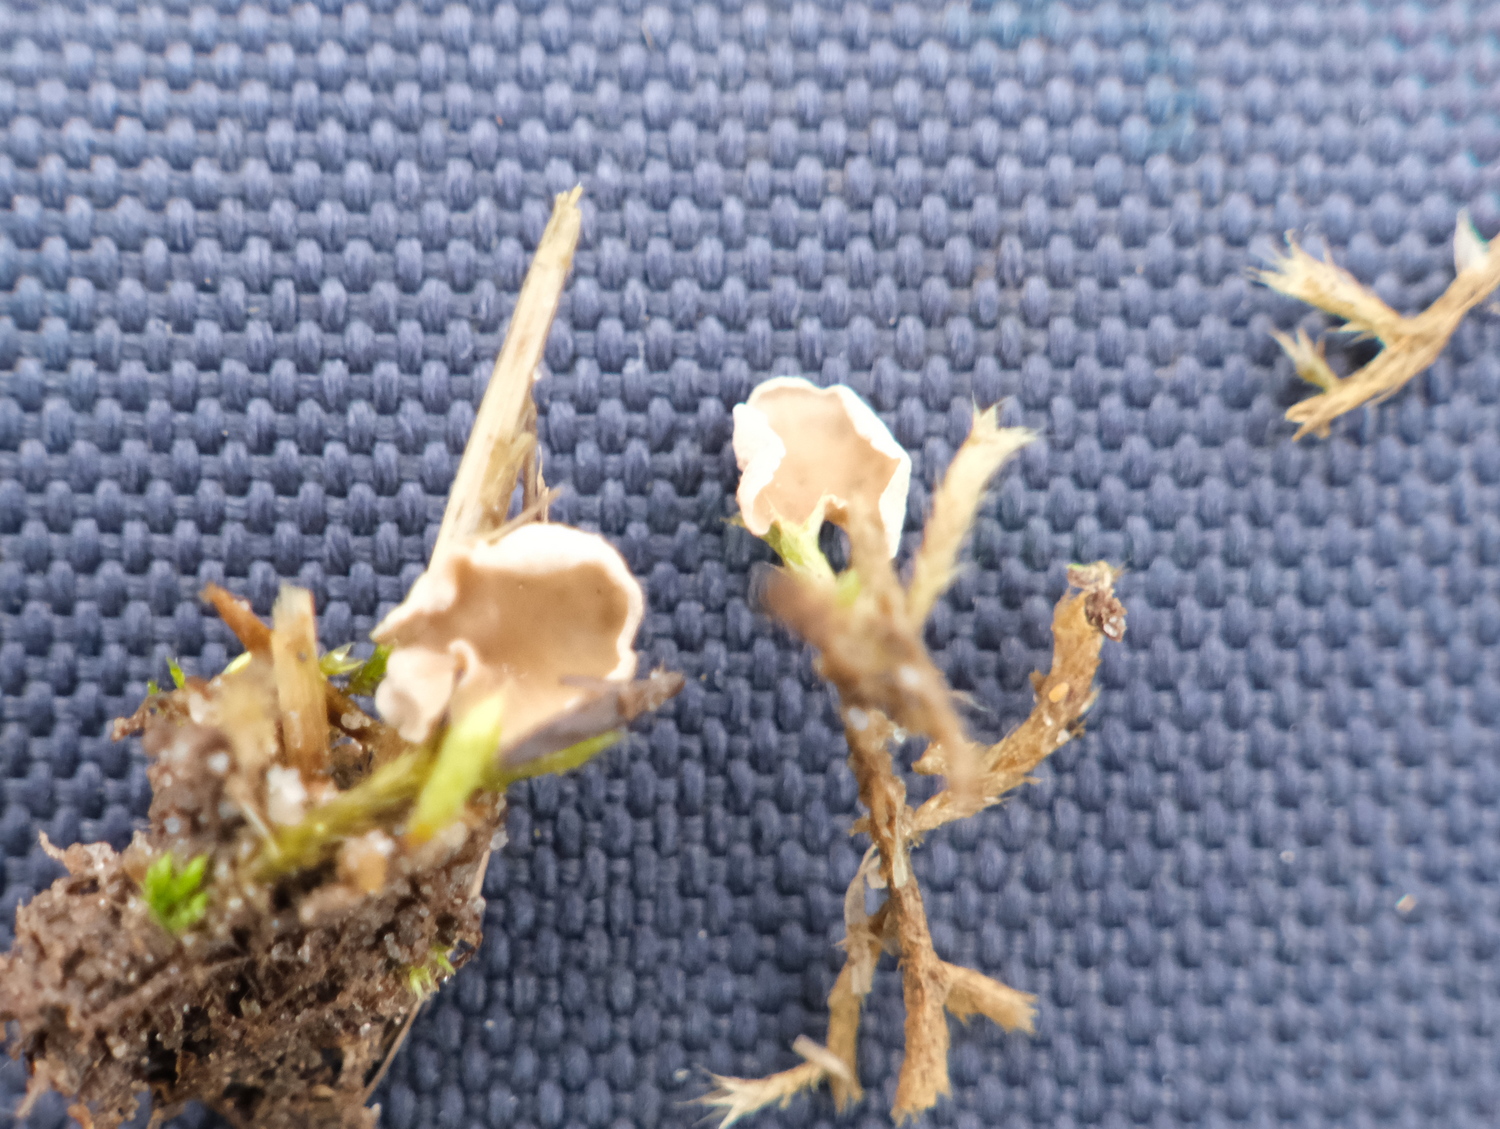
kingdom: Fungi
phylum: Basidiomycota
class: Agaricomycetes
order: Agaricales
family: Hygrophoraceae
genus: Arrhenia
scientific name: Arrhenia retiruga
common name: lille fontænehat
